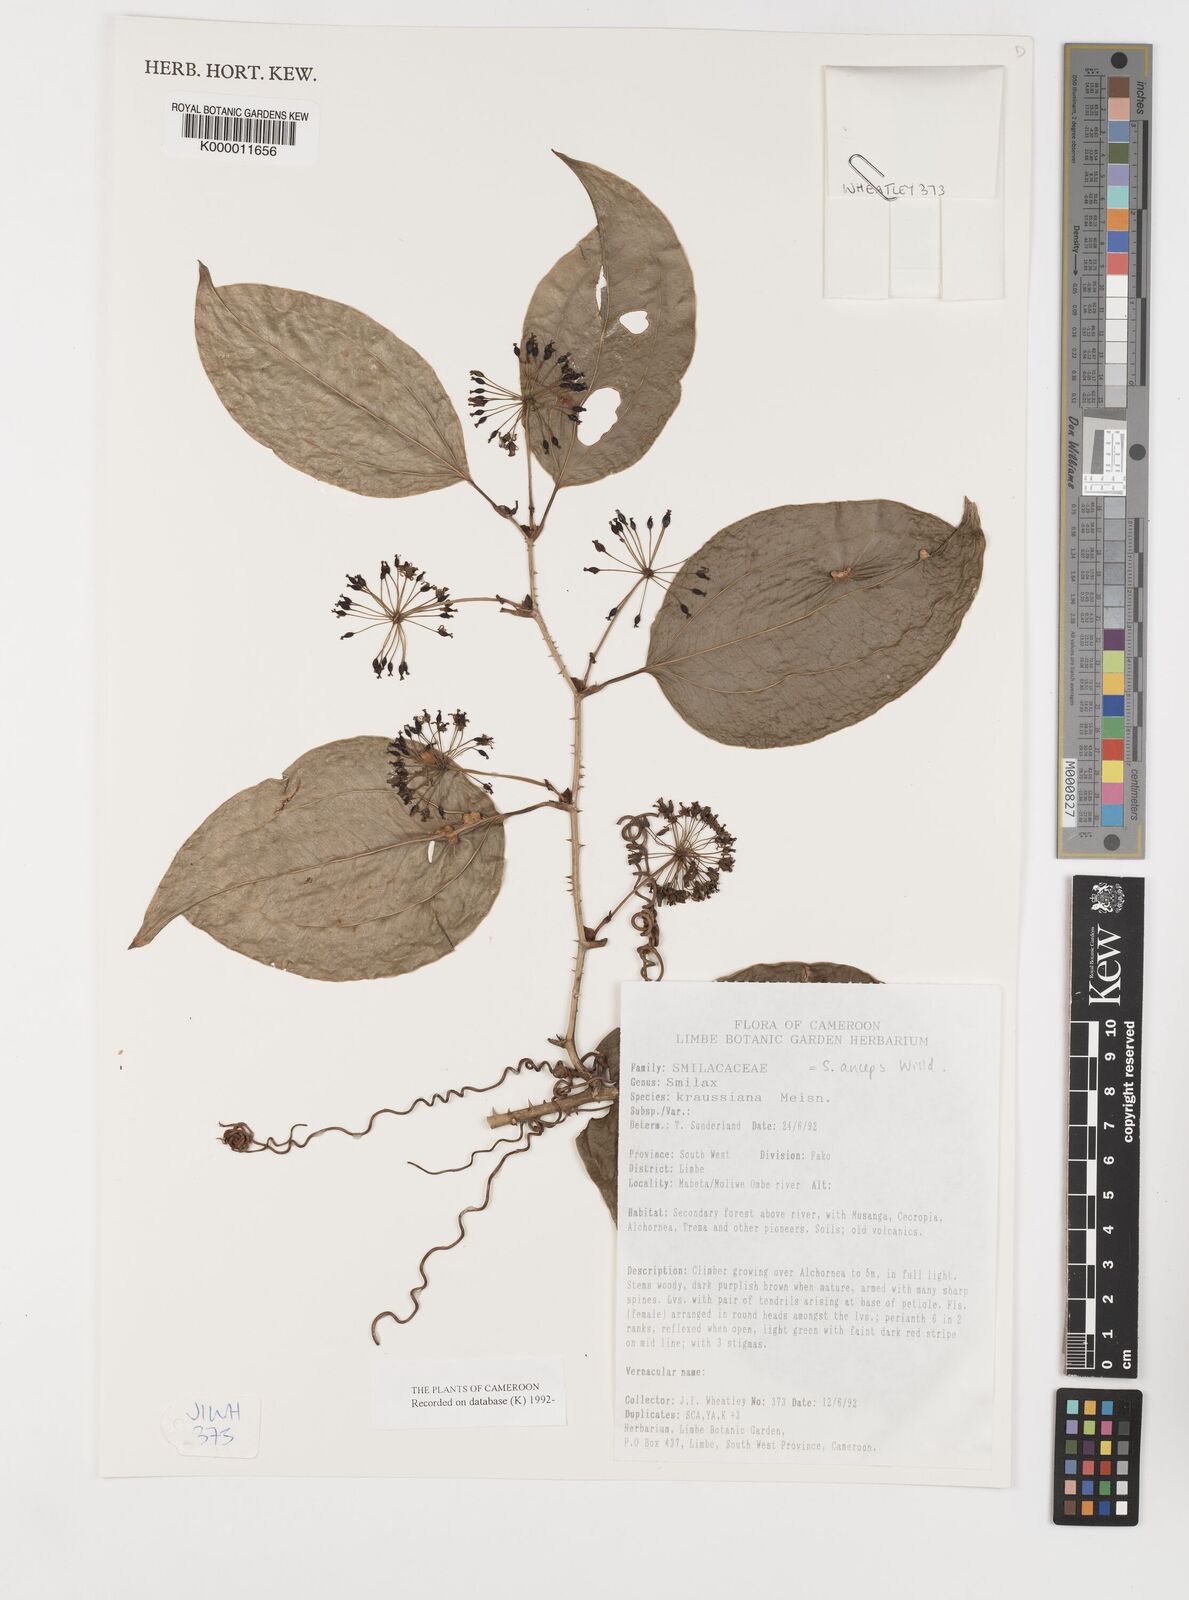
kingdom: Plantae
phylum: Tracheophyta
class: Liliopsida
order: Liliales
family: Smilacaceae
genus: Smilax
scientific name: Smilax anceps
